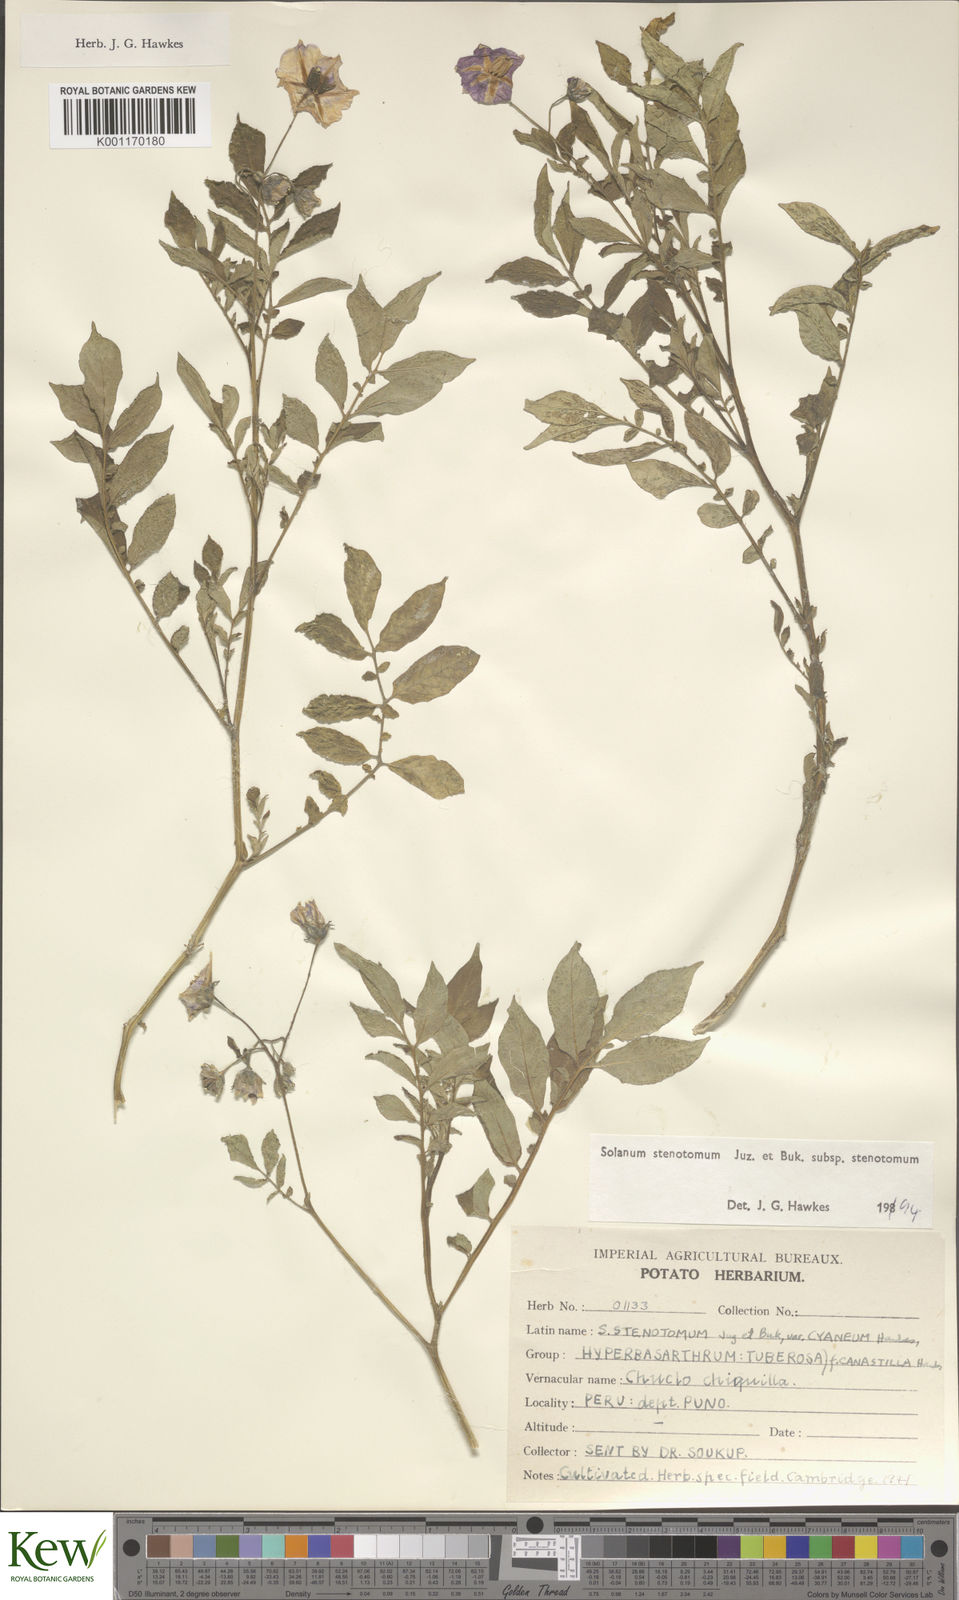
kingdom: Plantae
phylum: Tracheophyta
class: Magnoliopsida
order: Solanales
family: Solanaceae
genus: Solanum
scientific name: Solanum tuberosum
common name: Potato
